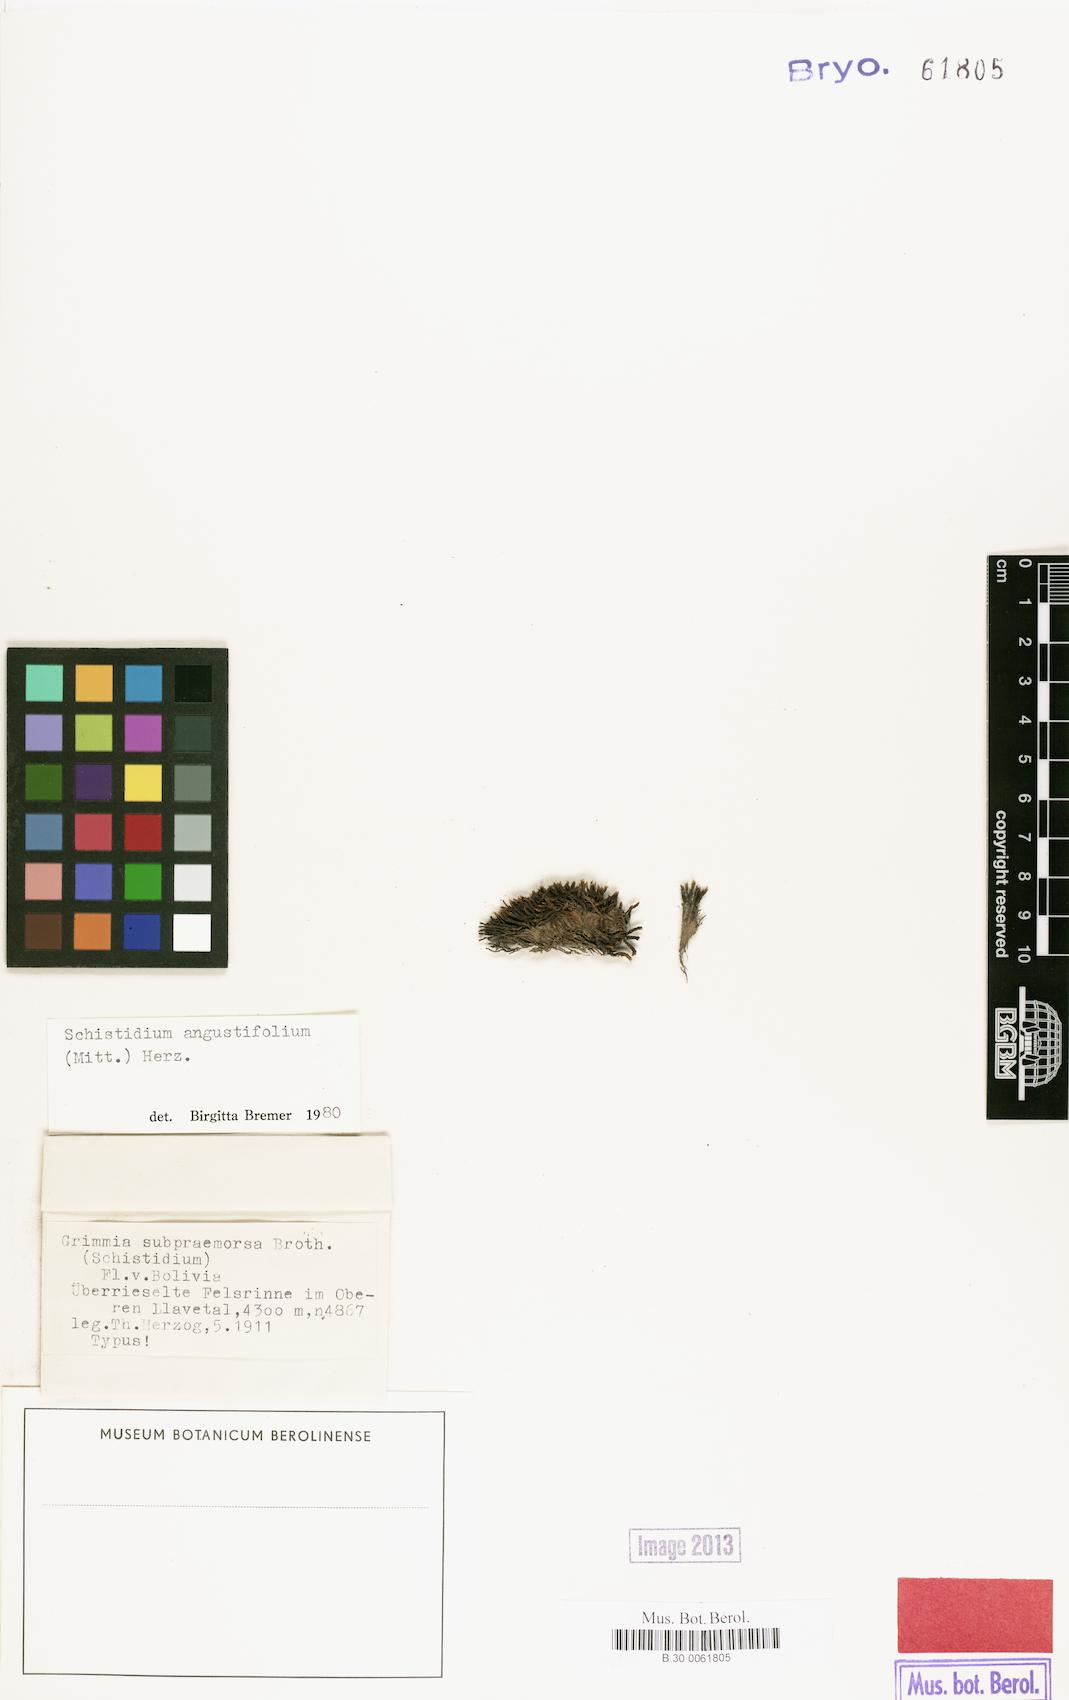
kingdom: Plantae
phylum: Bryophyta
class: Bryopsida
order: Grimmiales
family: Grimmiaceae
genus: Schistidium
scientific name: Schistidium amblyophyllum
